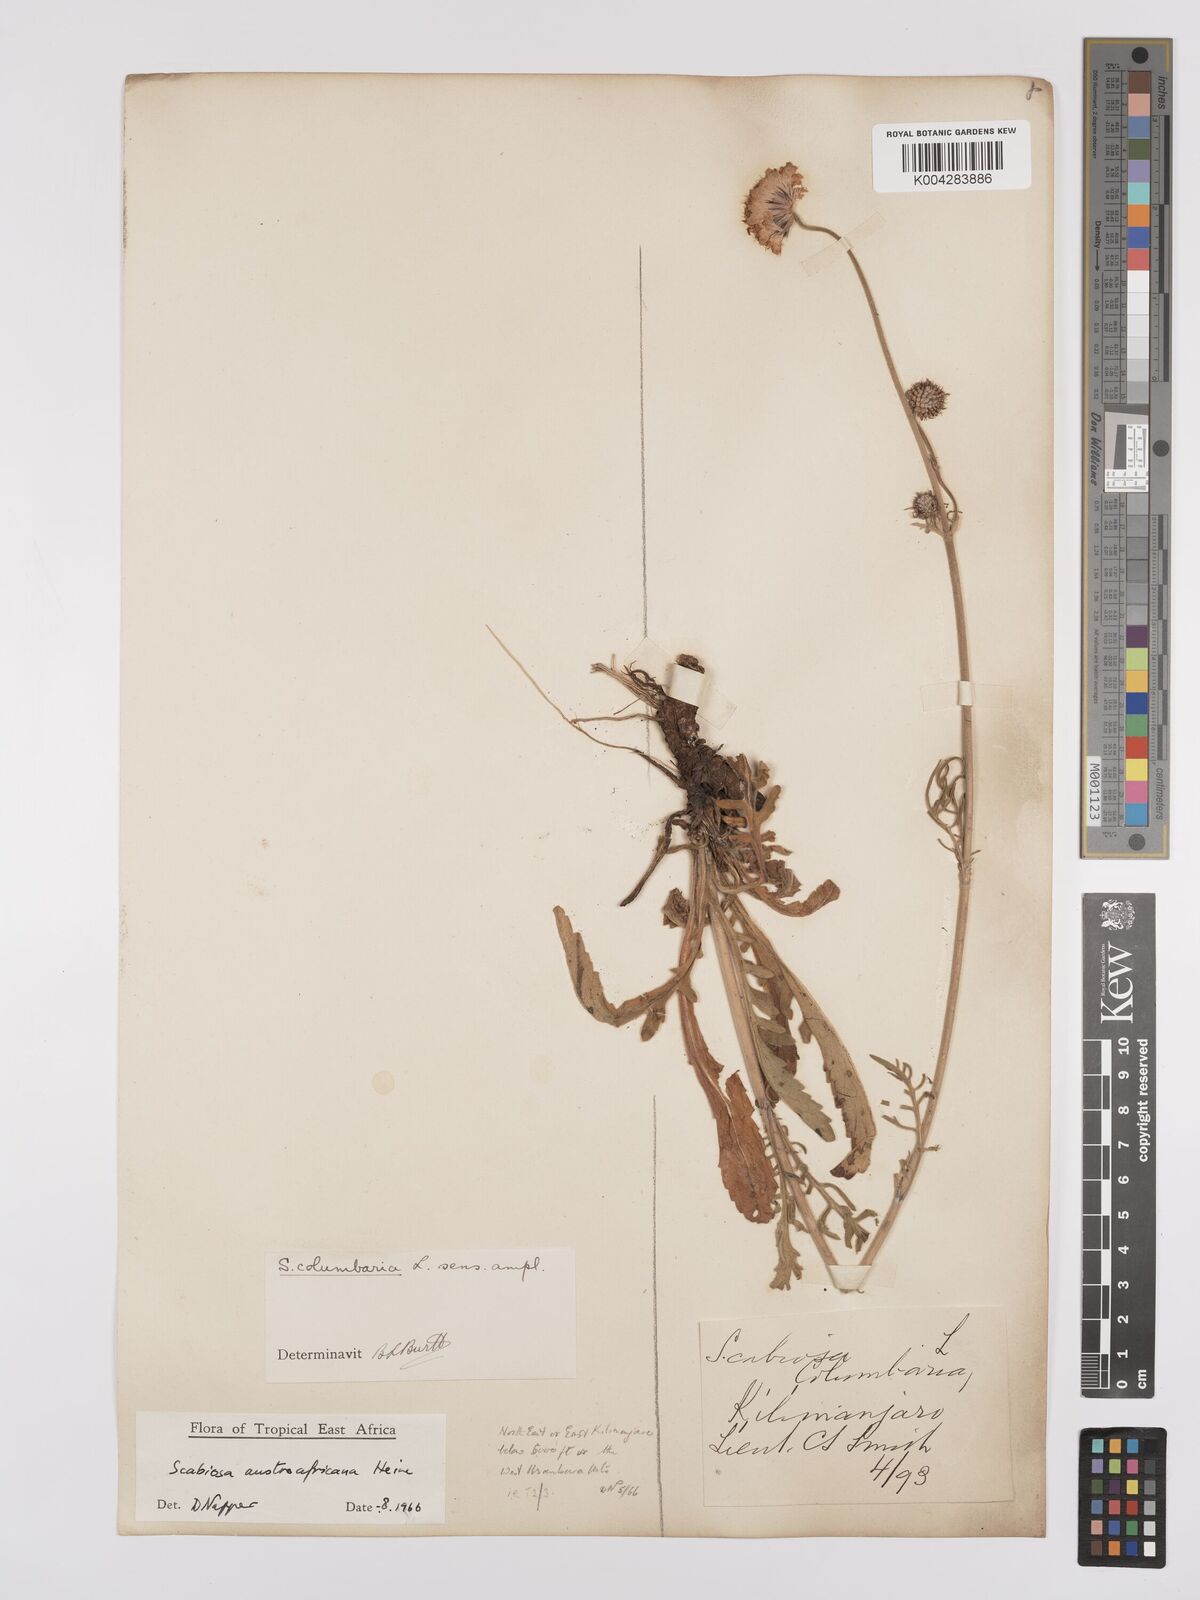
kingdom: Plantae
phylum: Tracheophyta
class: Magnoliopsida
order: Dipsacales
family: Caprifoliaceae
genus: Scabiosa
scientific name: Scabiosa austroafricana
